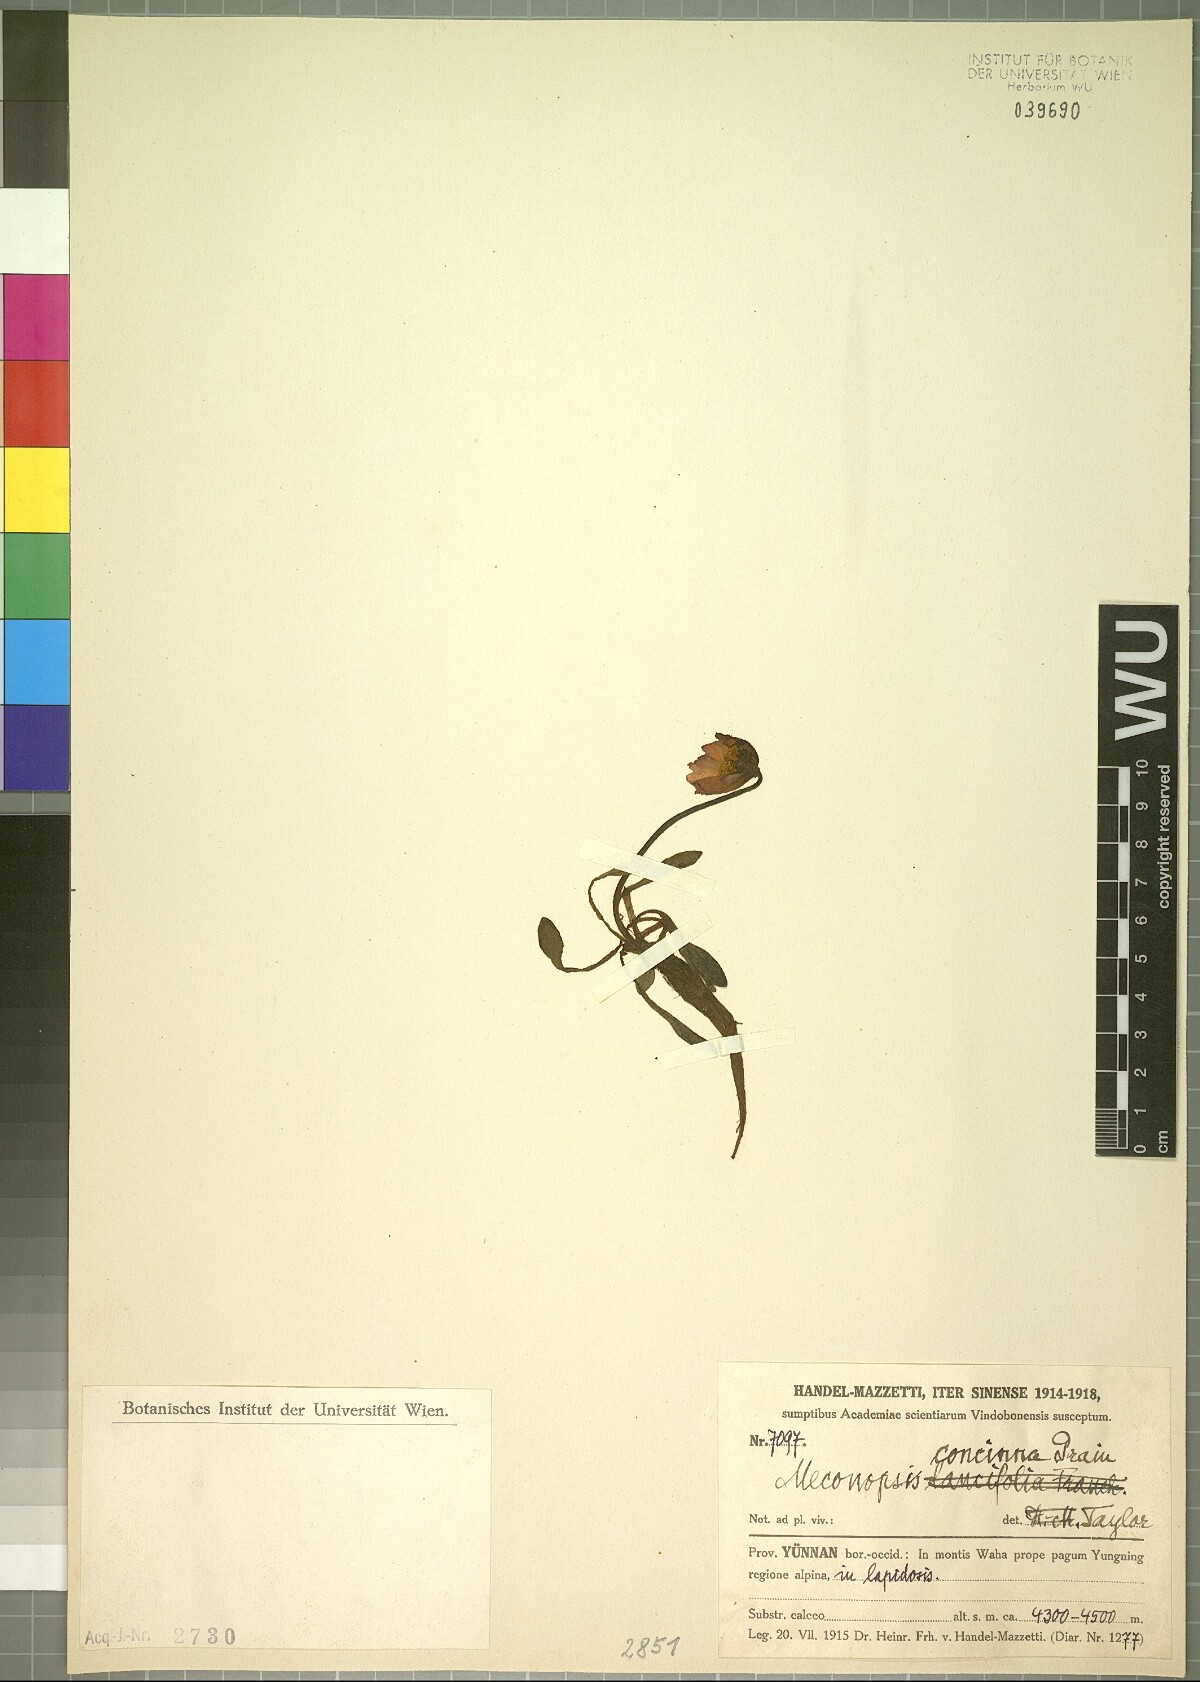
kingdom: Plantae
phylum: Tracheophyta
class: Magnoliopsida
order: Ranunculales
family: Papaveraceae
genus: Meconopsis
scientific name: Meconopsis concinna
